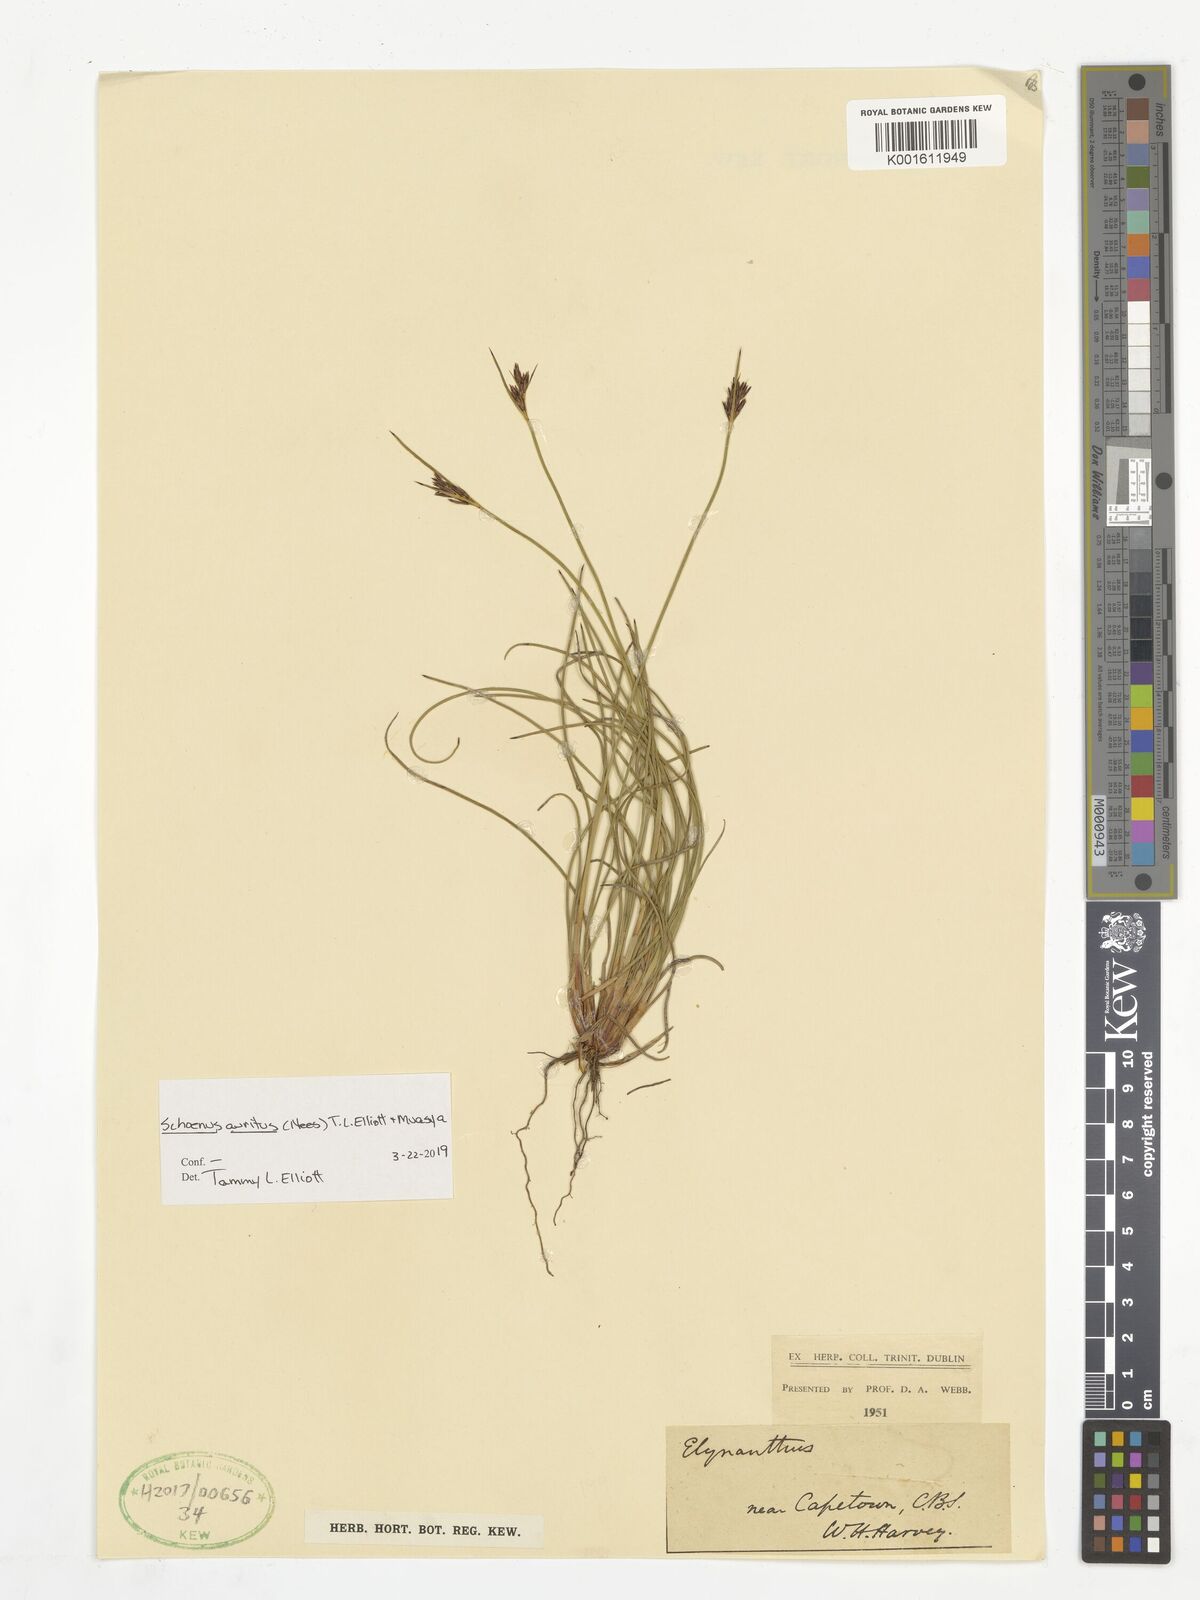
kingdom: Plantae
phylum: Tracheophyta
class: Liliopsida
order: Poales
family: Cyperaceae
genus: Schoenus
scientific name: Schoenus auritus
